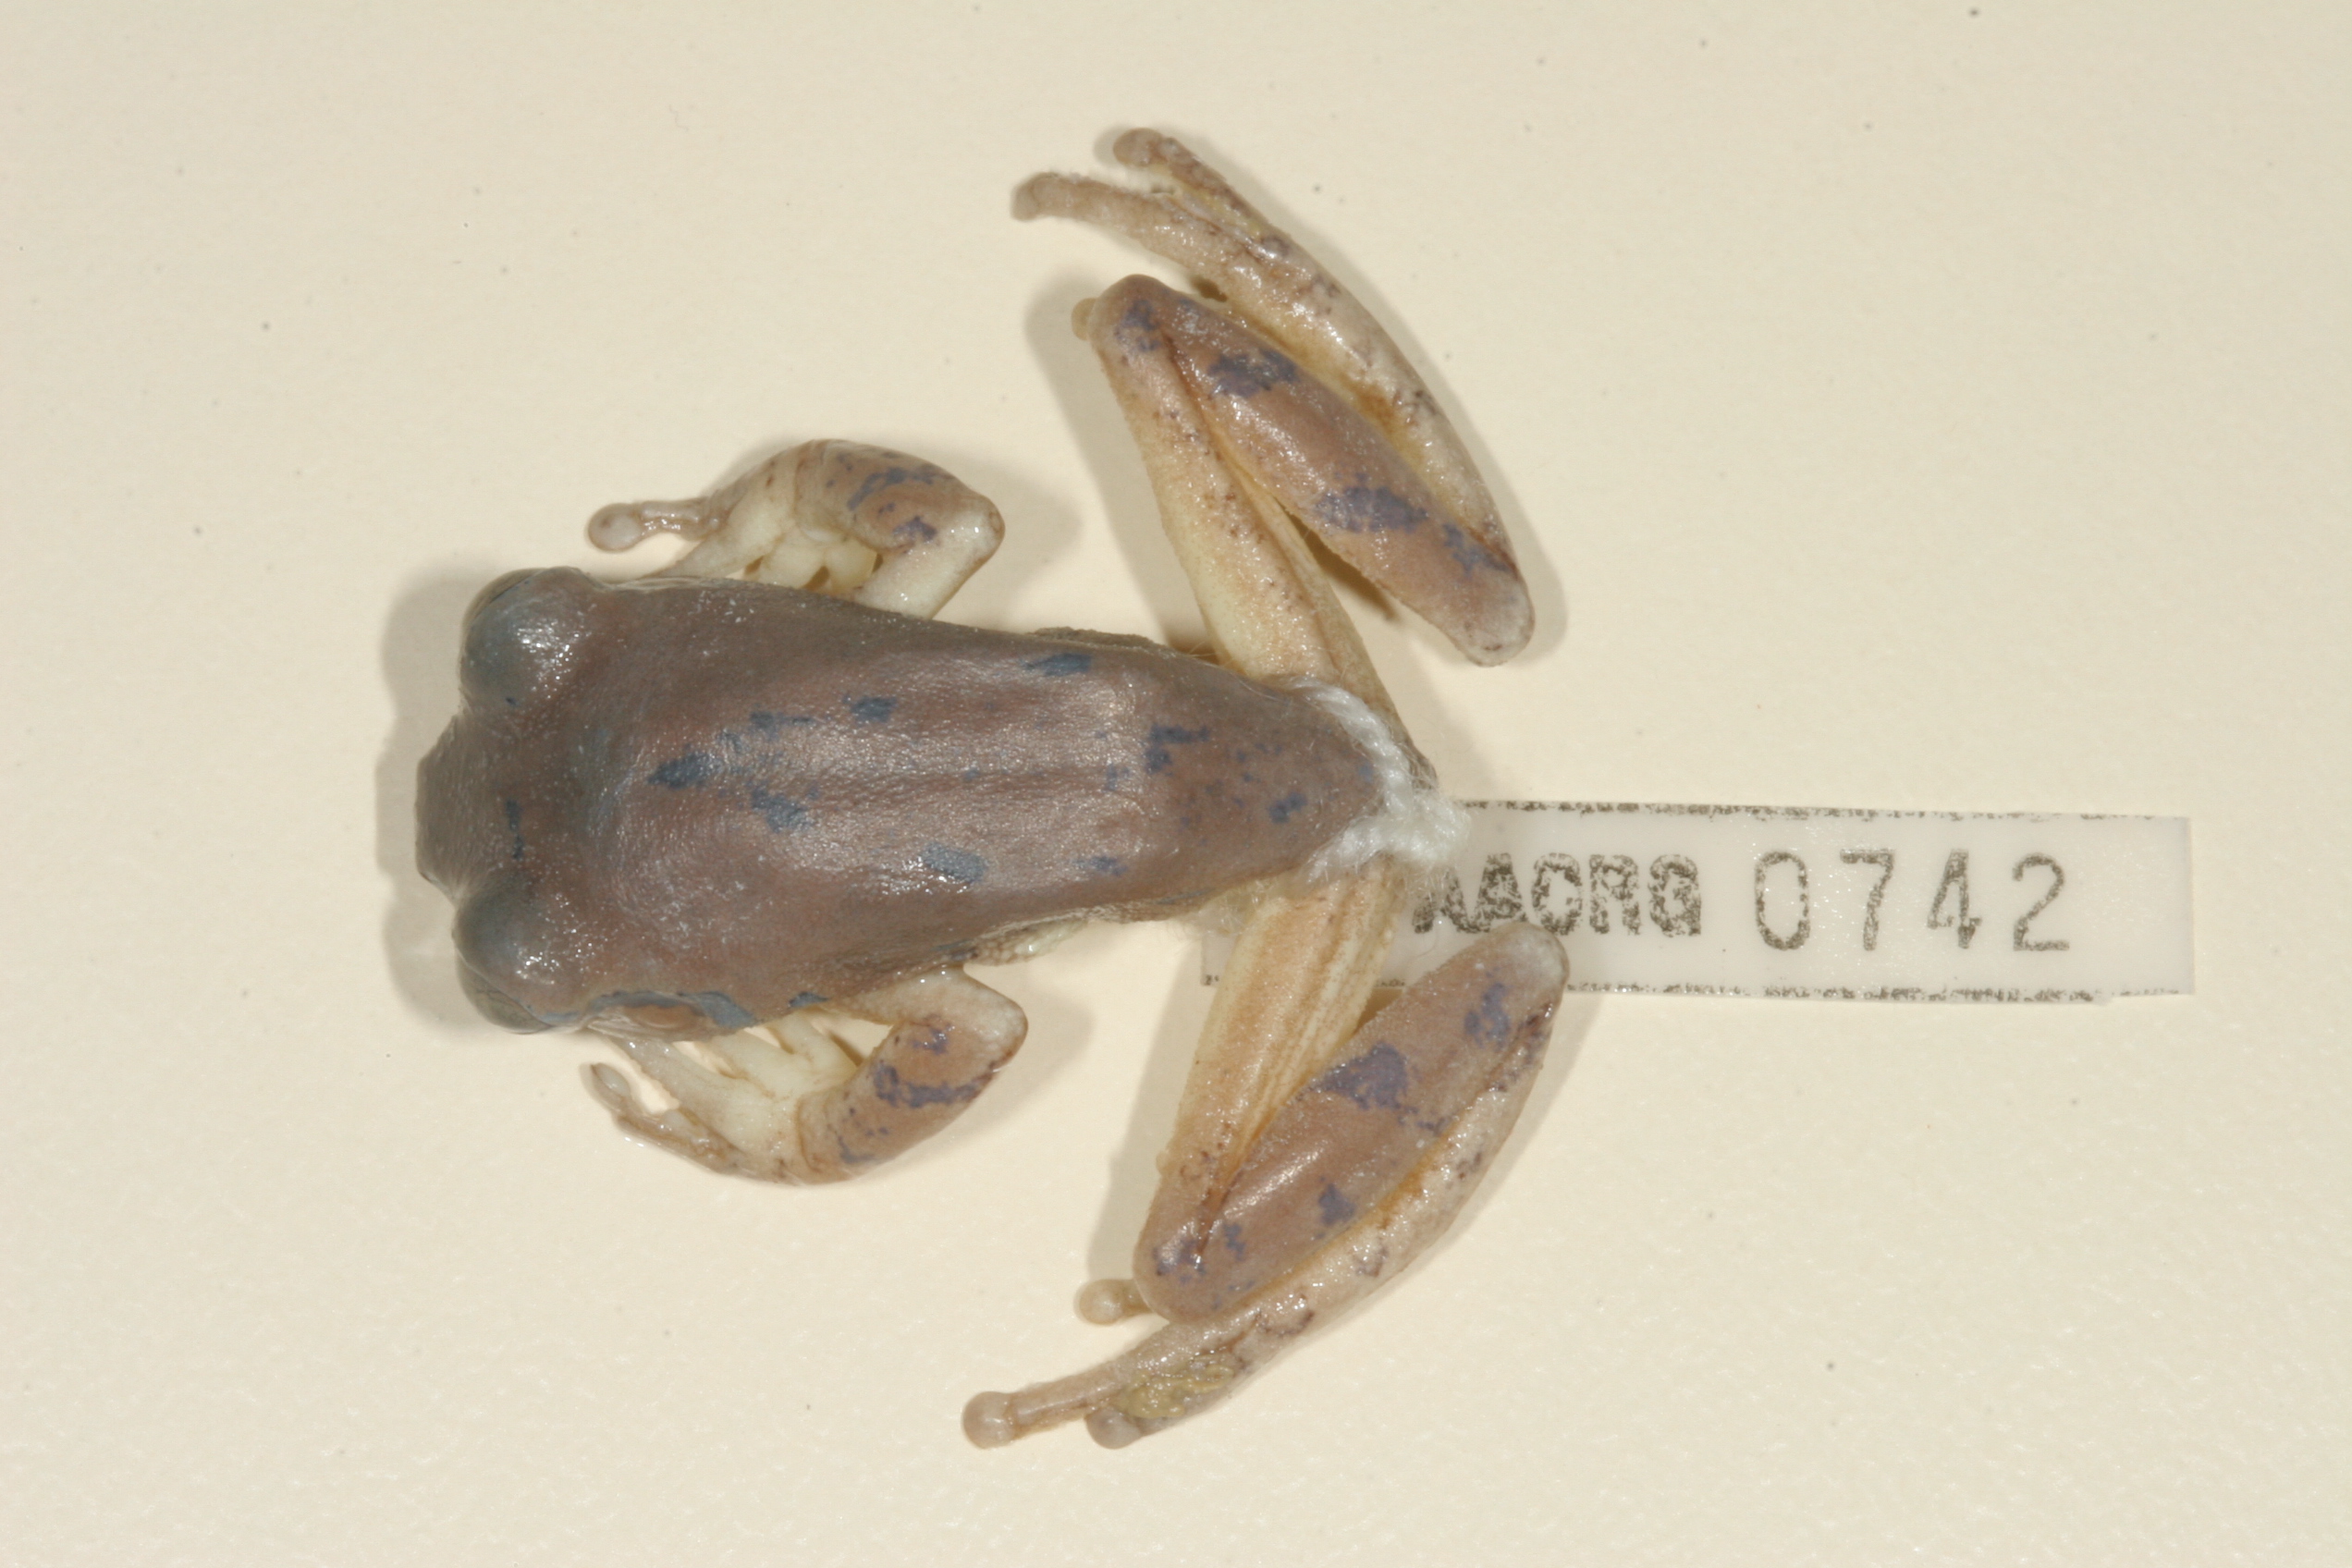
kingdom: Animalia
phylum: Chordata
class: Amphibia
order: Anura
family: Arthroleptidae
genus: Leptopelis
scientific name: Leptopelis natalensis
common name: Natal tree frog
